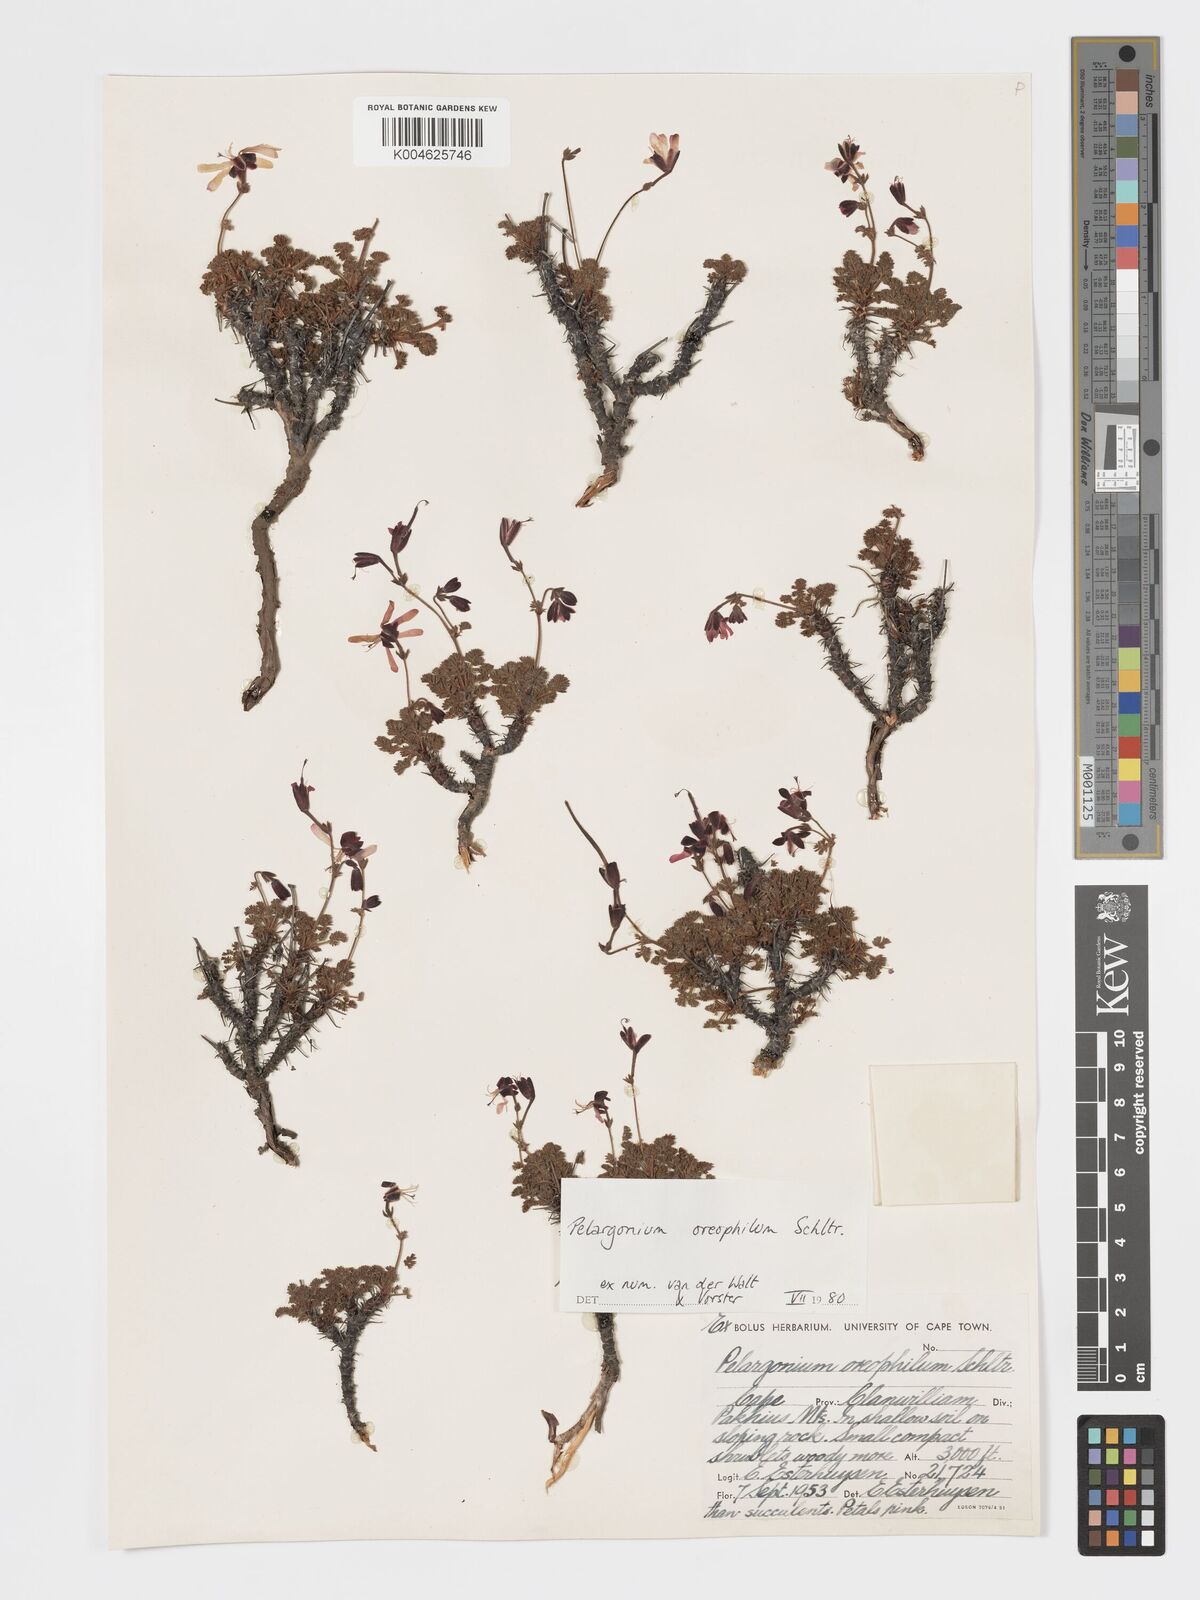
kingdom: Plantae
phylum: Tracheophyta
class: Magnoliopsida
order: Geraniales
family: Geraniaceae
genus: Pelargonium
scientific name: Pelargonium oreophilum
